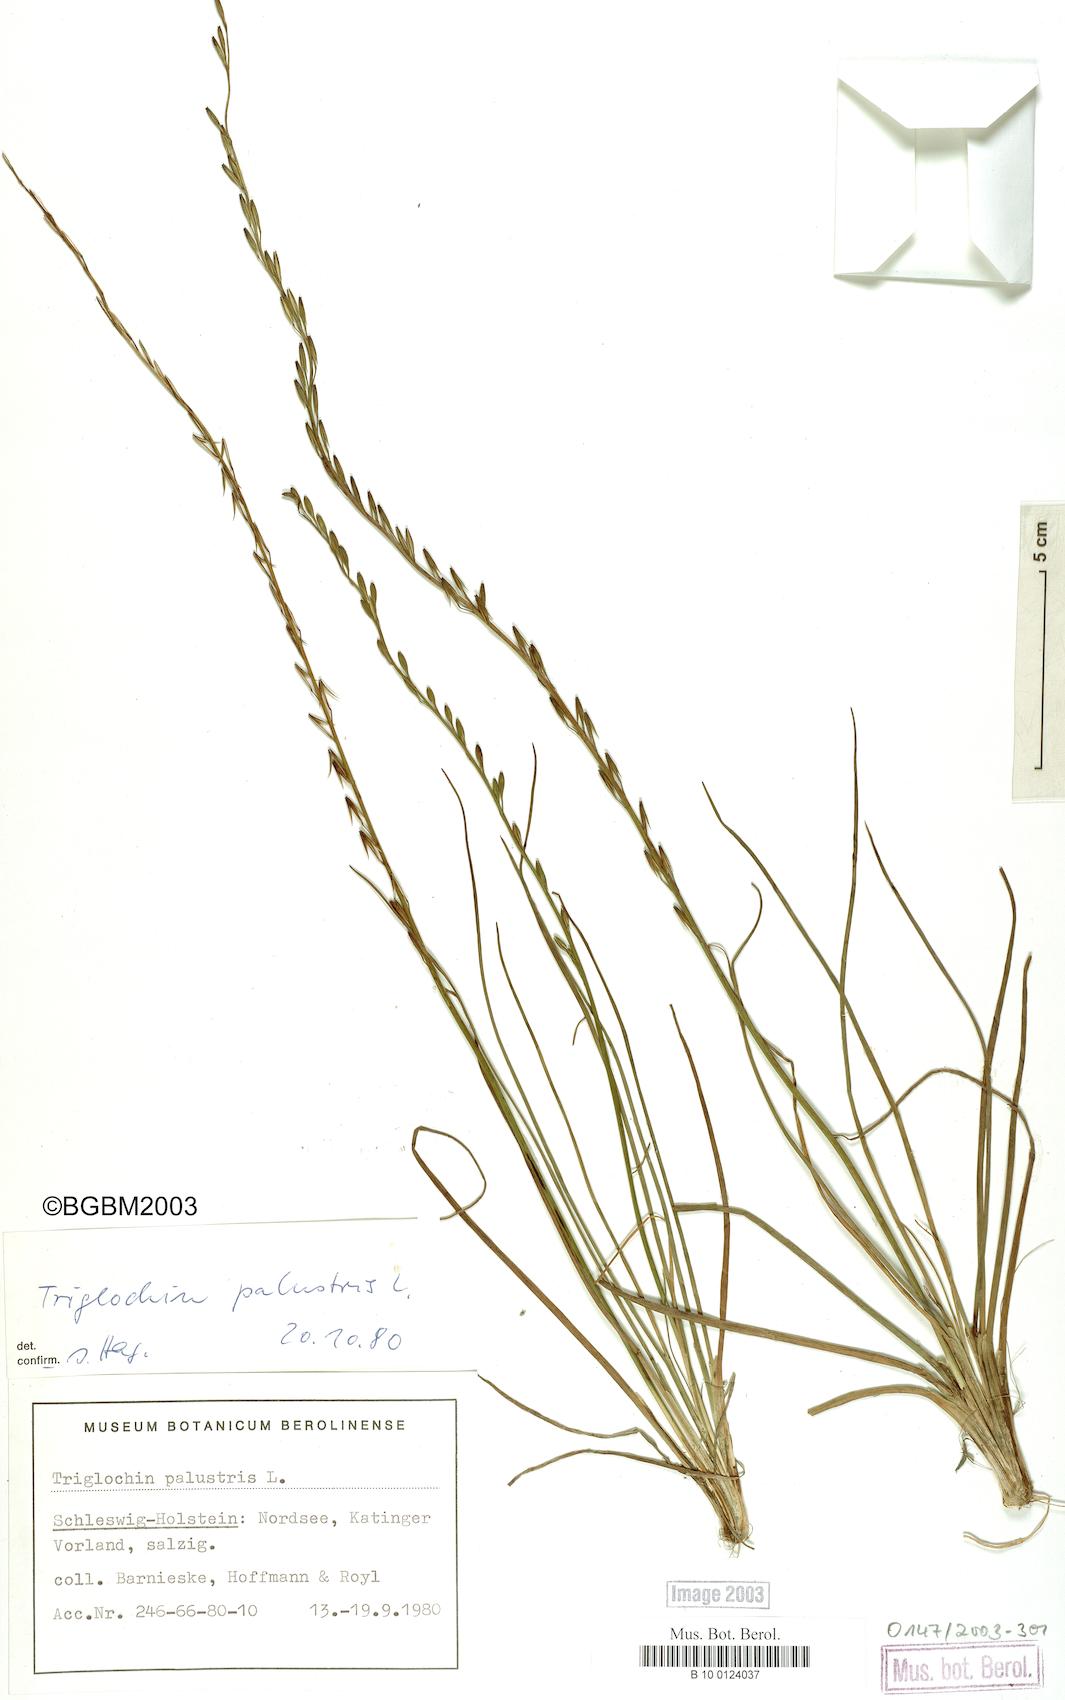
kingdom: Plantae
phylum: Tracheophyta
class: Liliopsida
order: Alismatales
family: Juncaginaceae
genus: Triglochin
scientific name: Triglochin palustris
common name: Marsh arrowgrass
